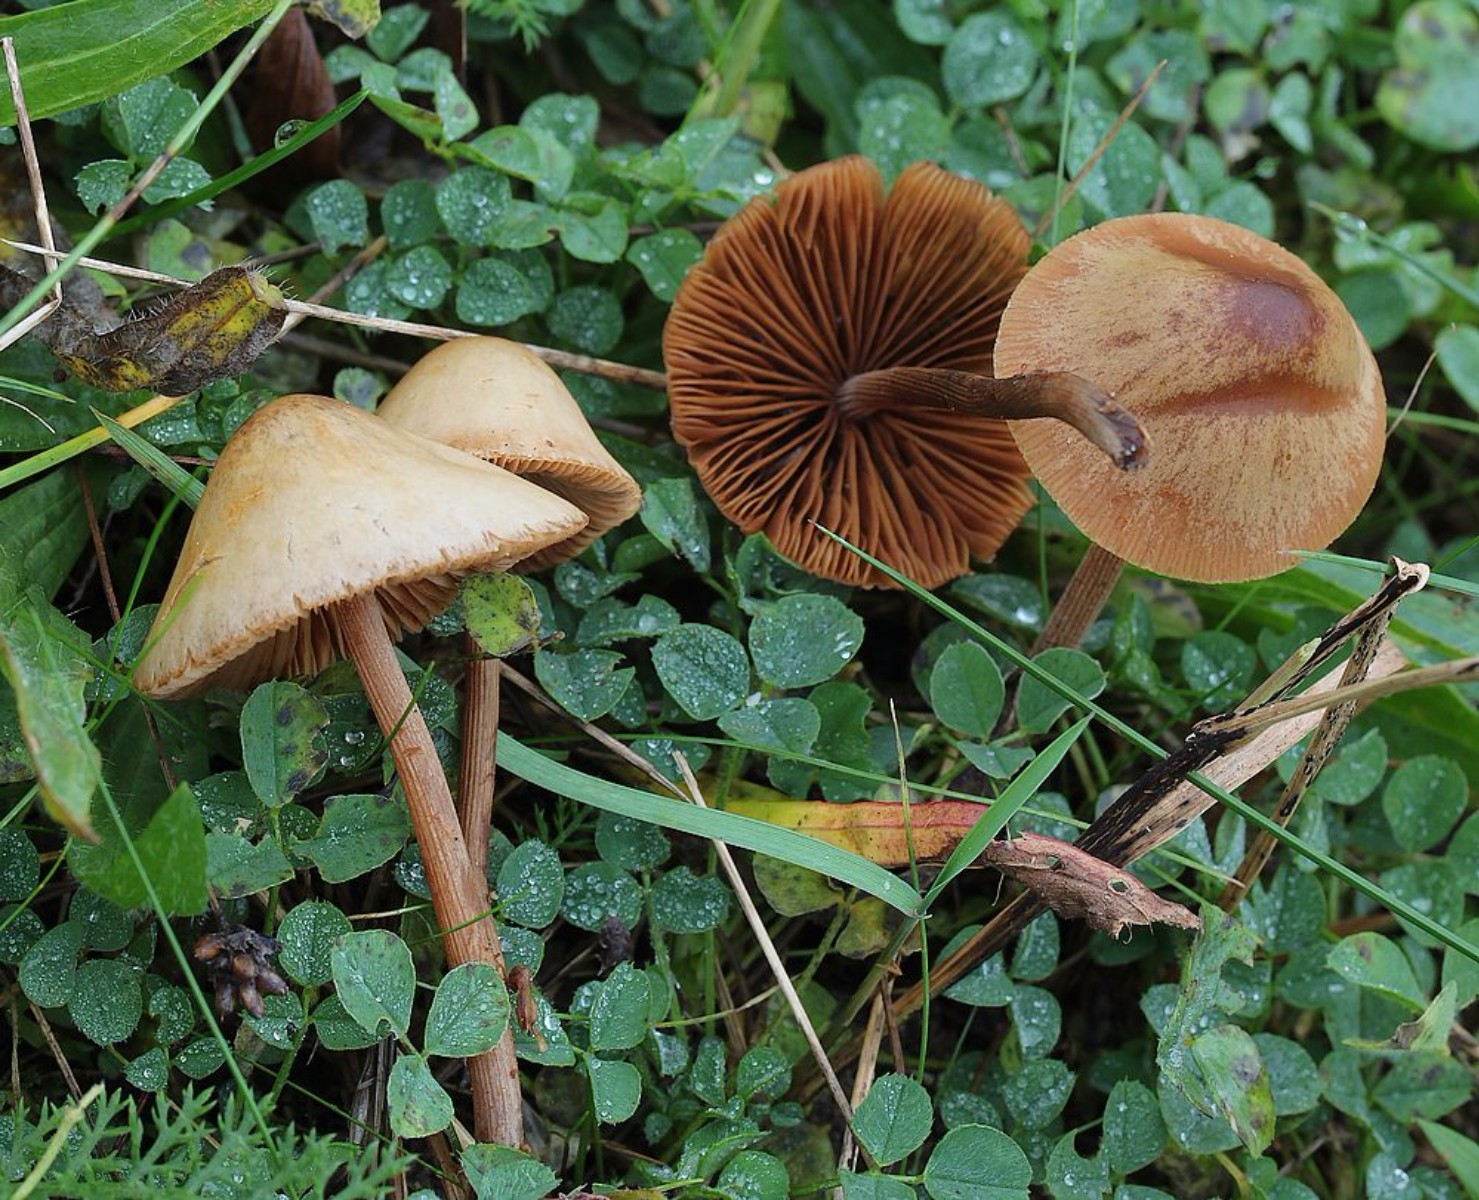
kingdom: Fungi
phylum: Basidiomycota
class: Agaricomycetes
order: Agaricales
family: Bolbitiaceae
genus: Conocybe
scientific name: Conocybe
